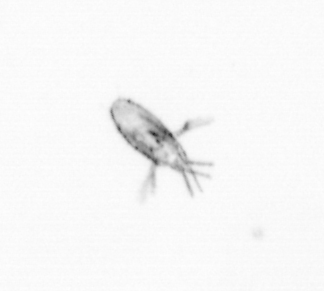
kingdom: Animalia
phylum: Arthropoda
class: Copepoda
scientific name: Copepoda
